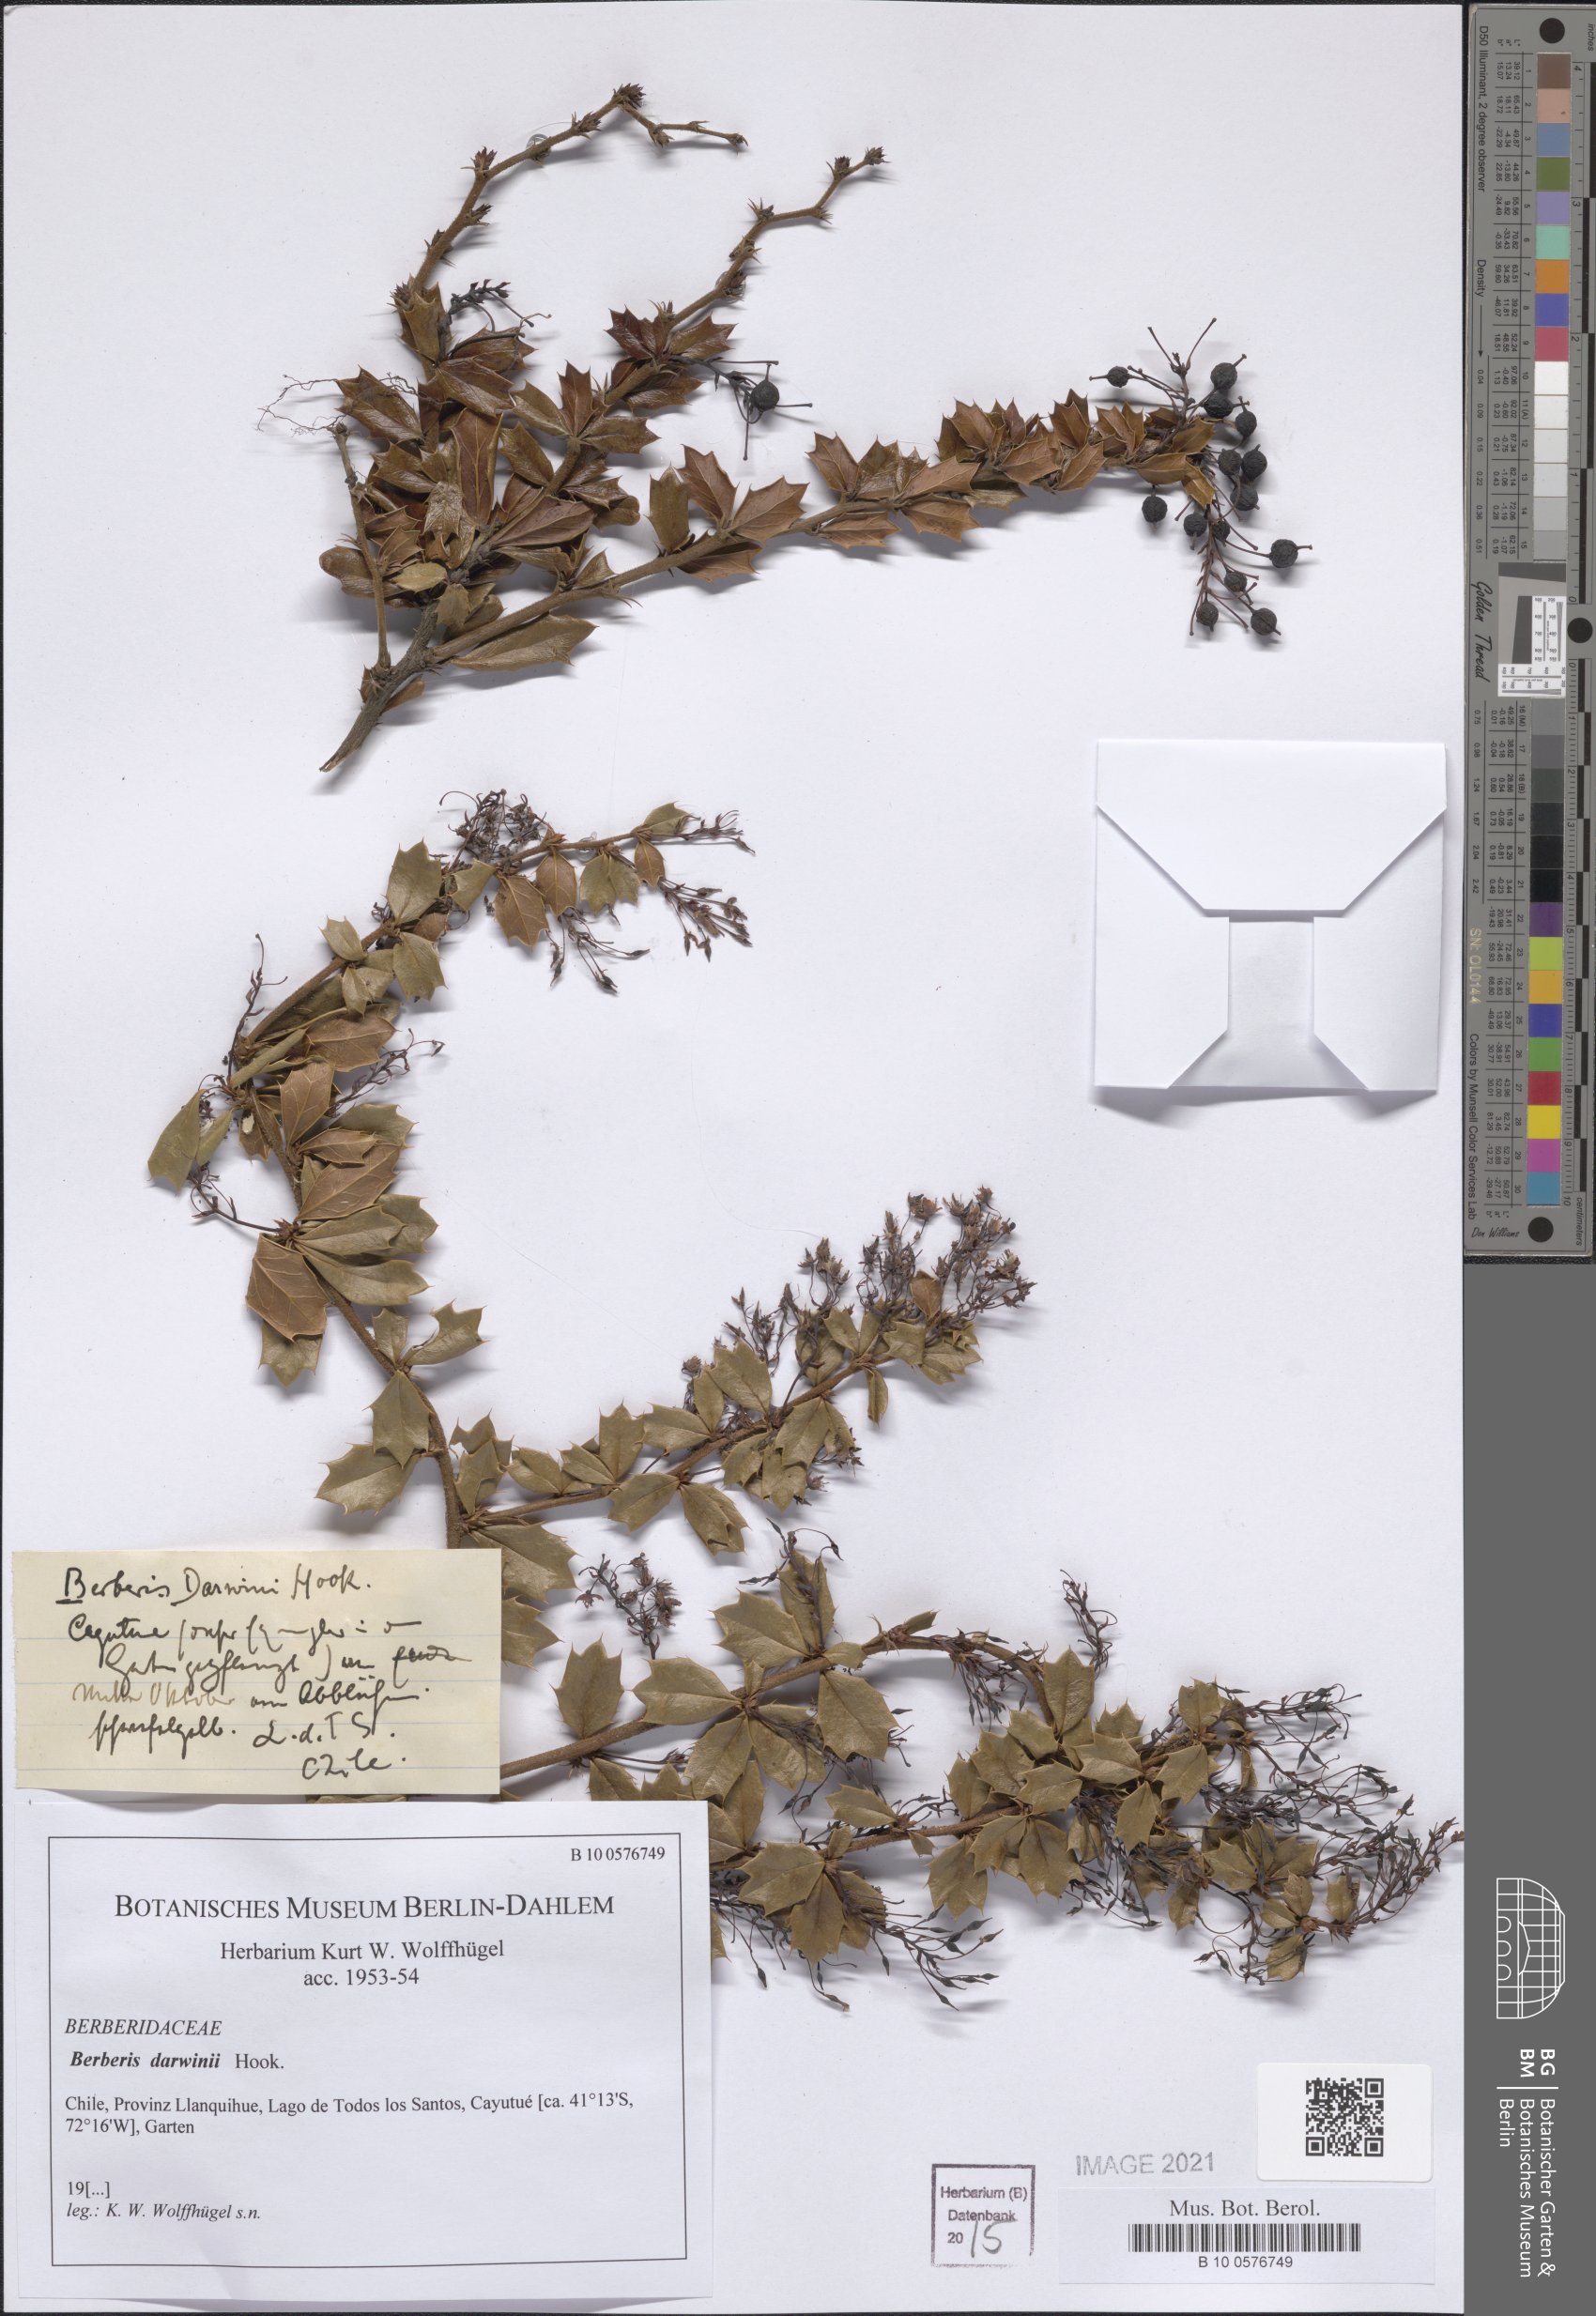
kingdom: Plantae
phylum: Tracheophyta
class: Magnoliopsida
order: Ranunculales
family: Berberidaceae
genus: Berberis
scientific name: Berberis darwinii
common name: Darwin's barberry
